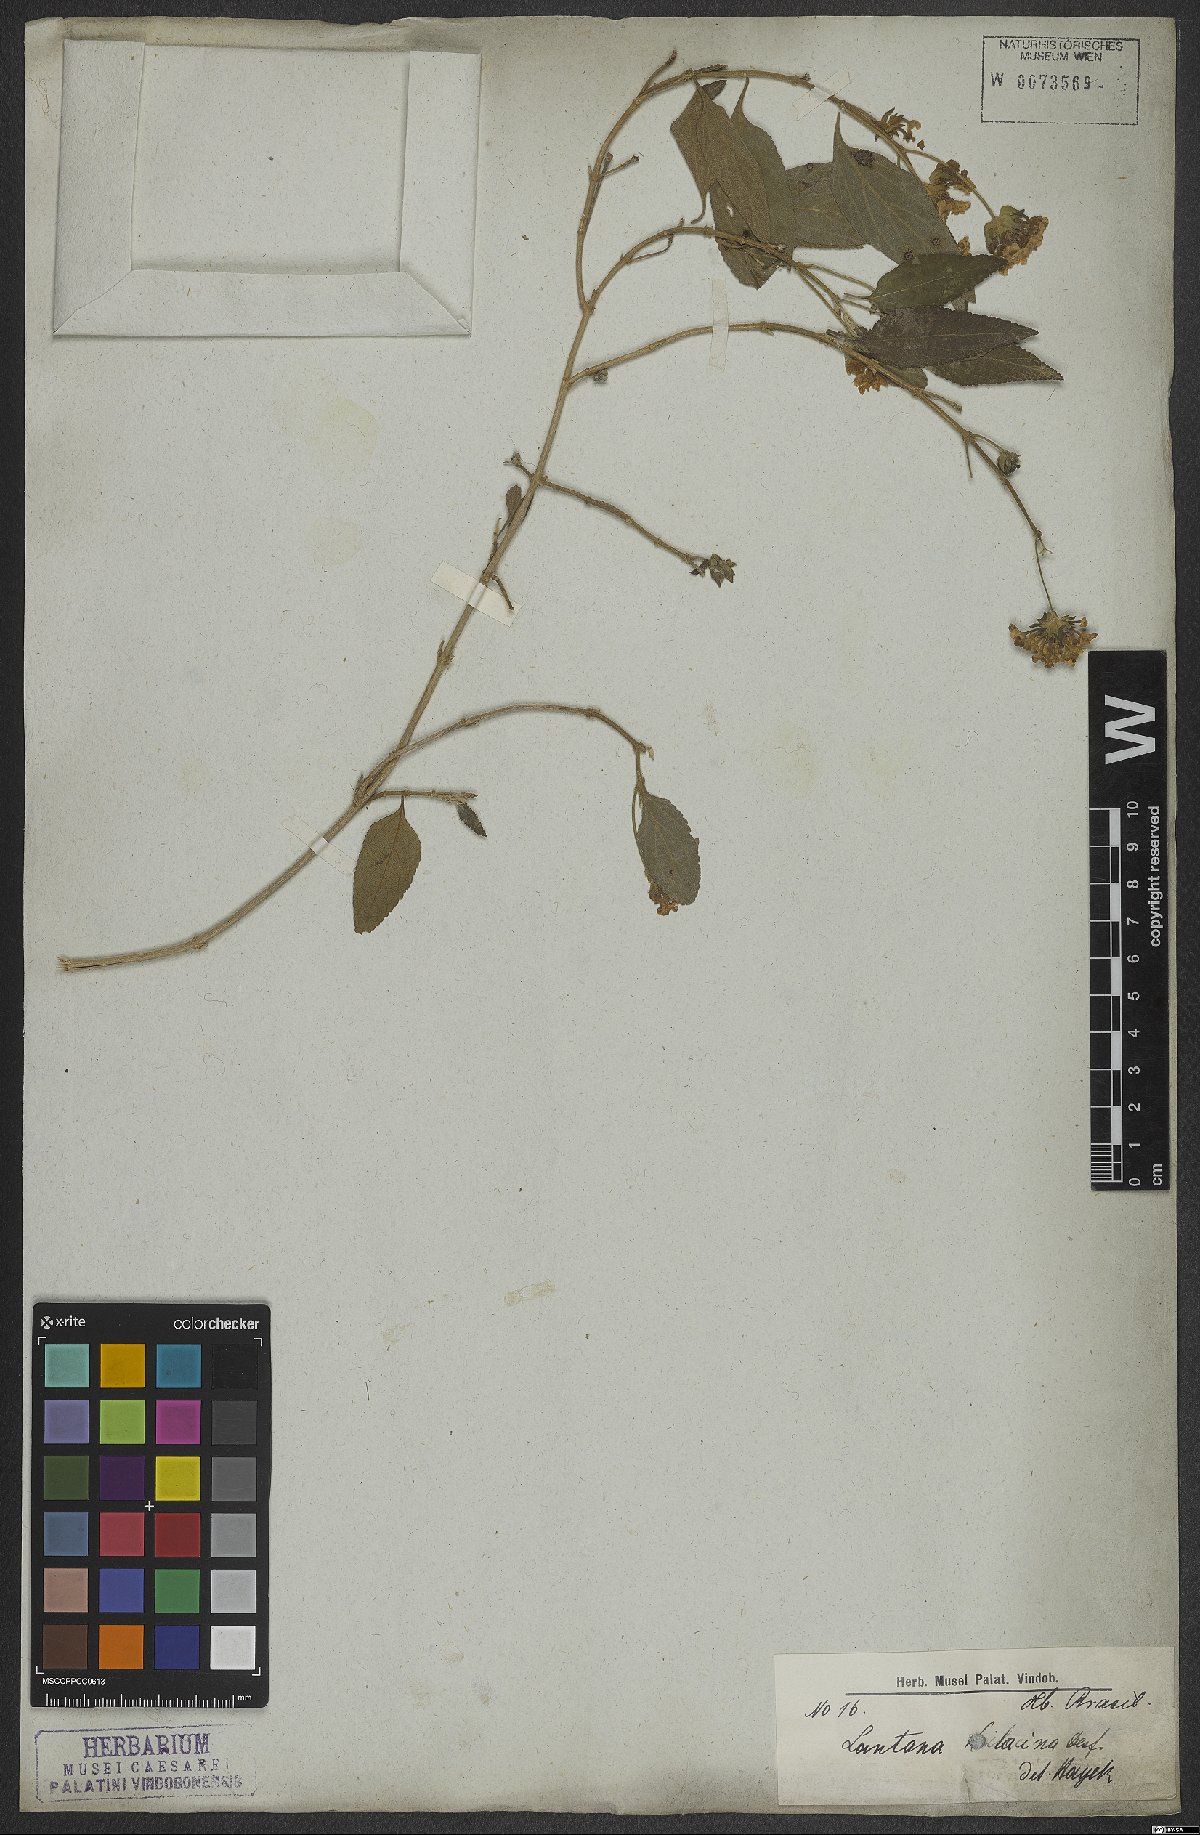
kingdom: Plantae
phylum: Tracheophyta
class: Magnoliopsida
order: Lamiales
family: Verbenaceae
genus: Lantana
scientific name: Lantana fucata
